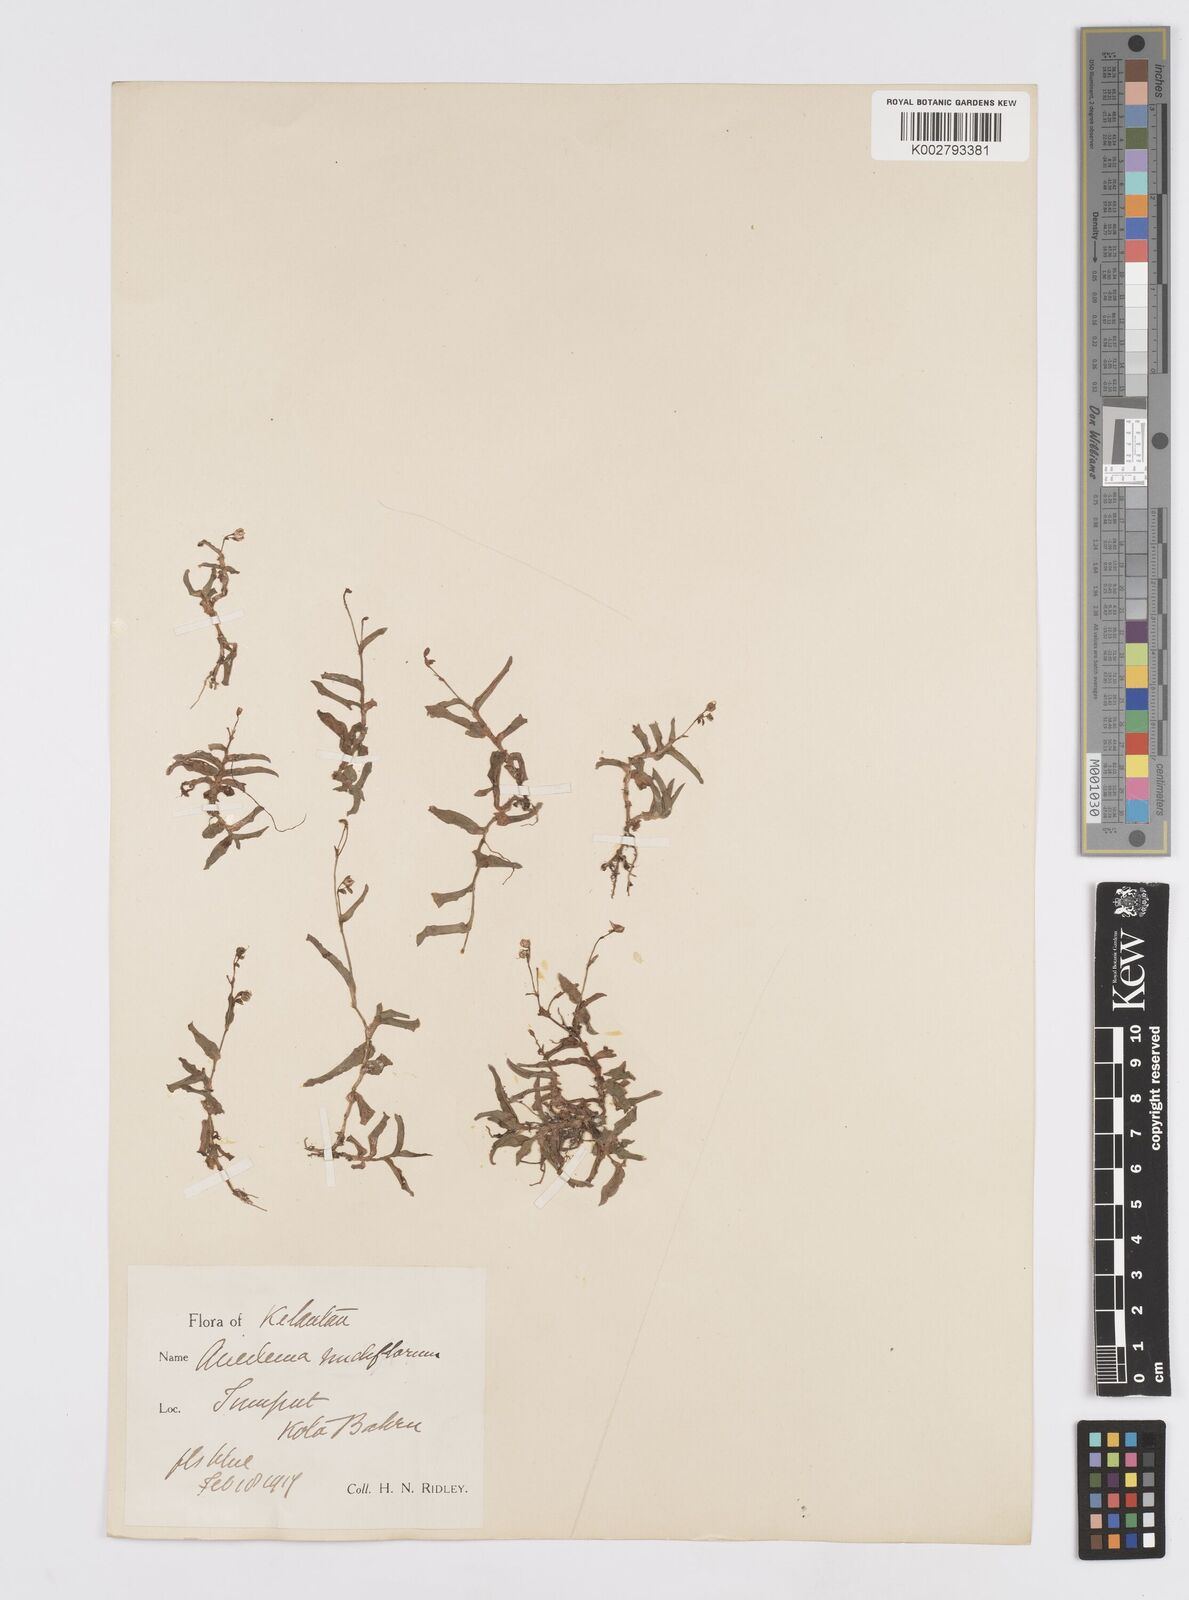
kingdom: Plantae
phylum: Tracheophyta
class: Liliopsida
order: Commelinales
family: Commelinaceae
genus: Murdannia
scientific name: Murdannia
